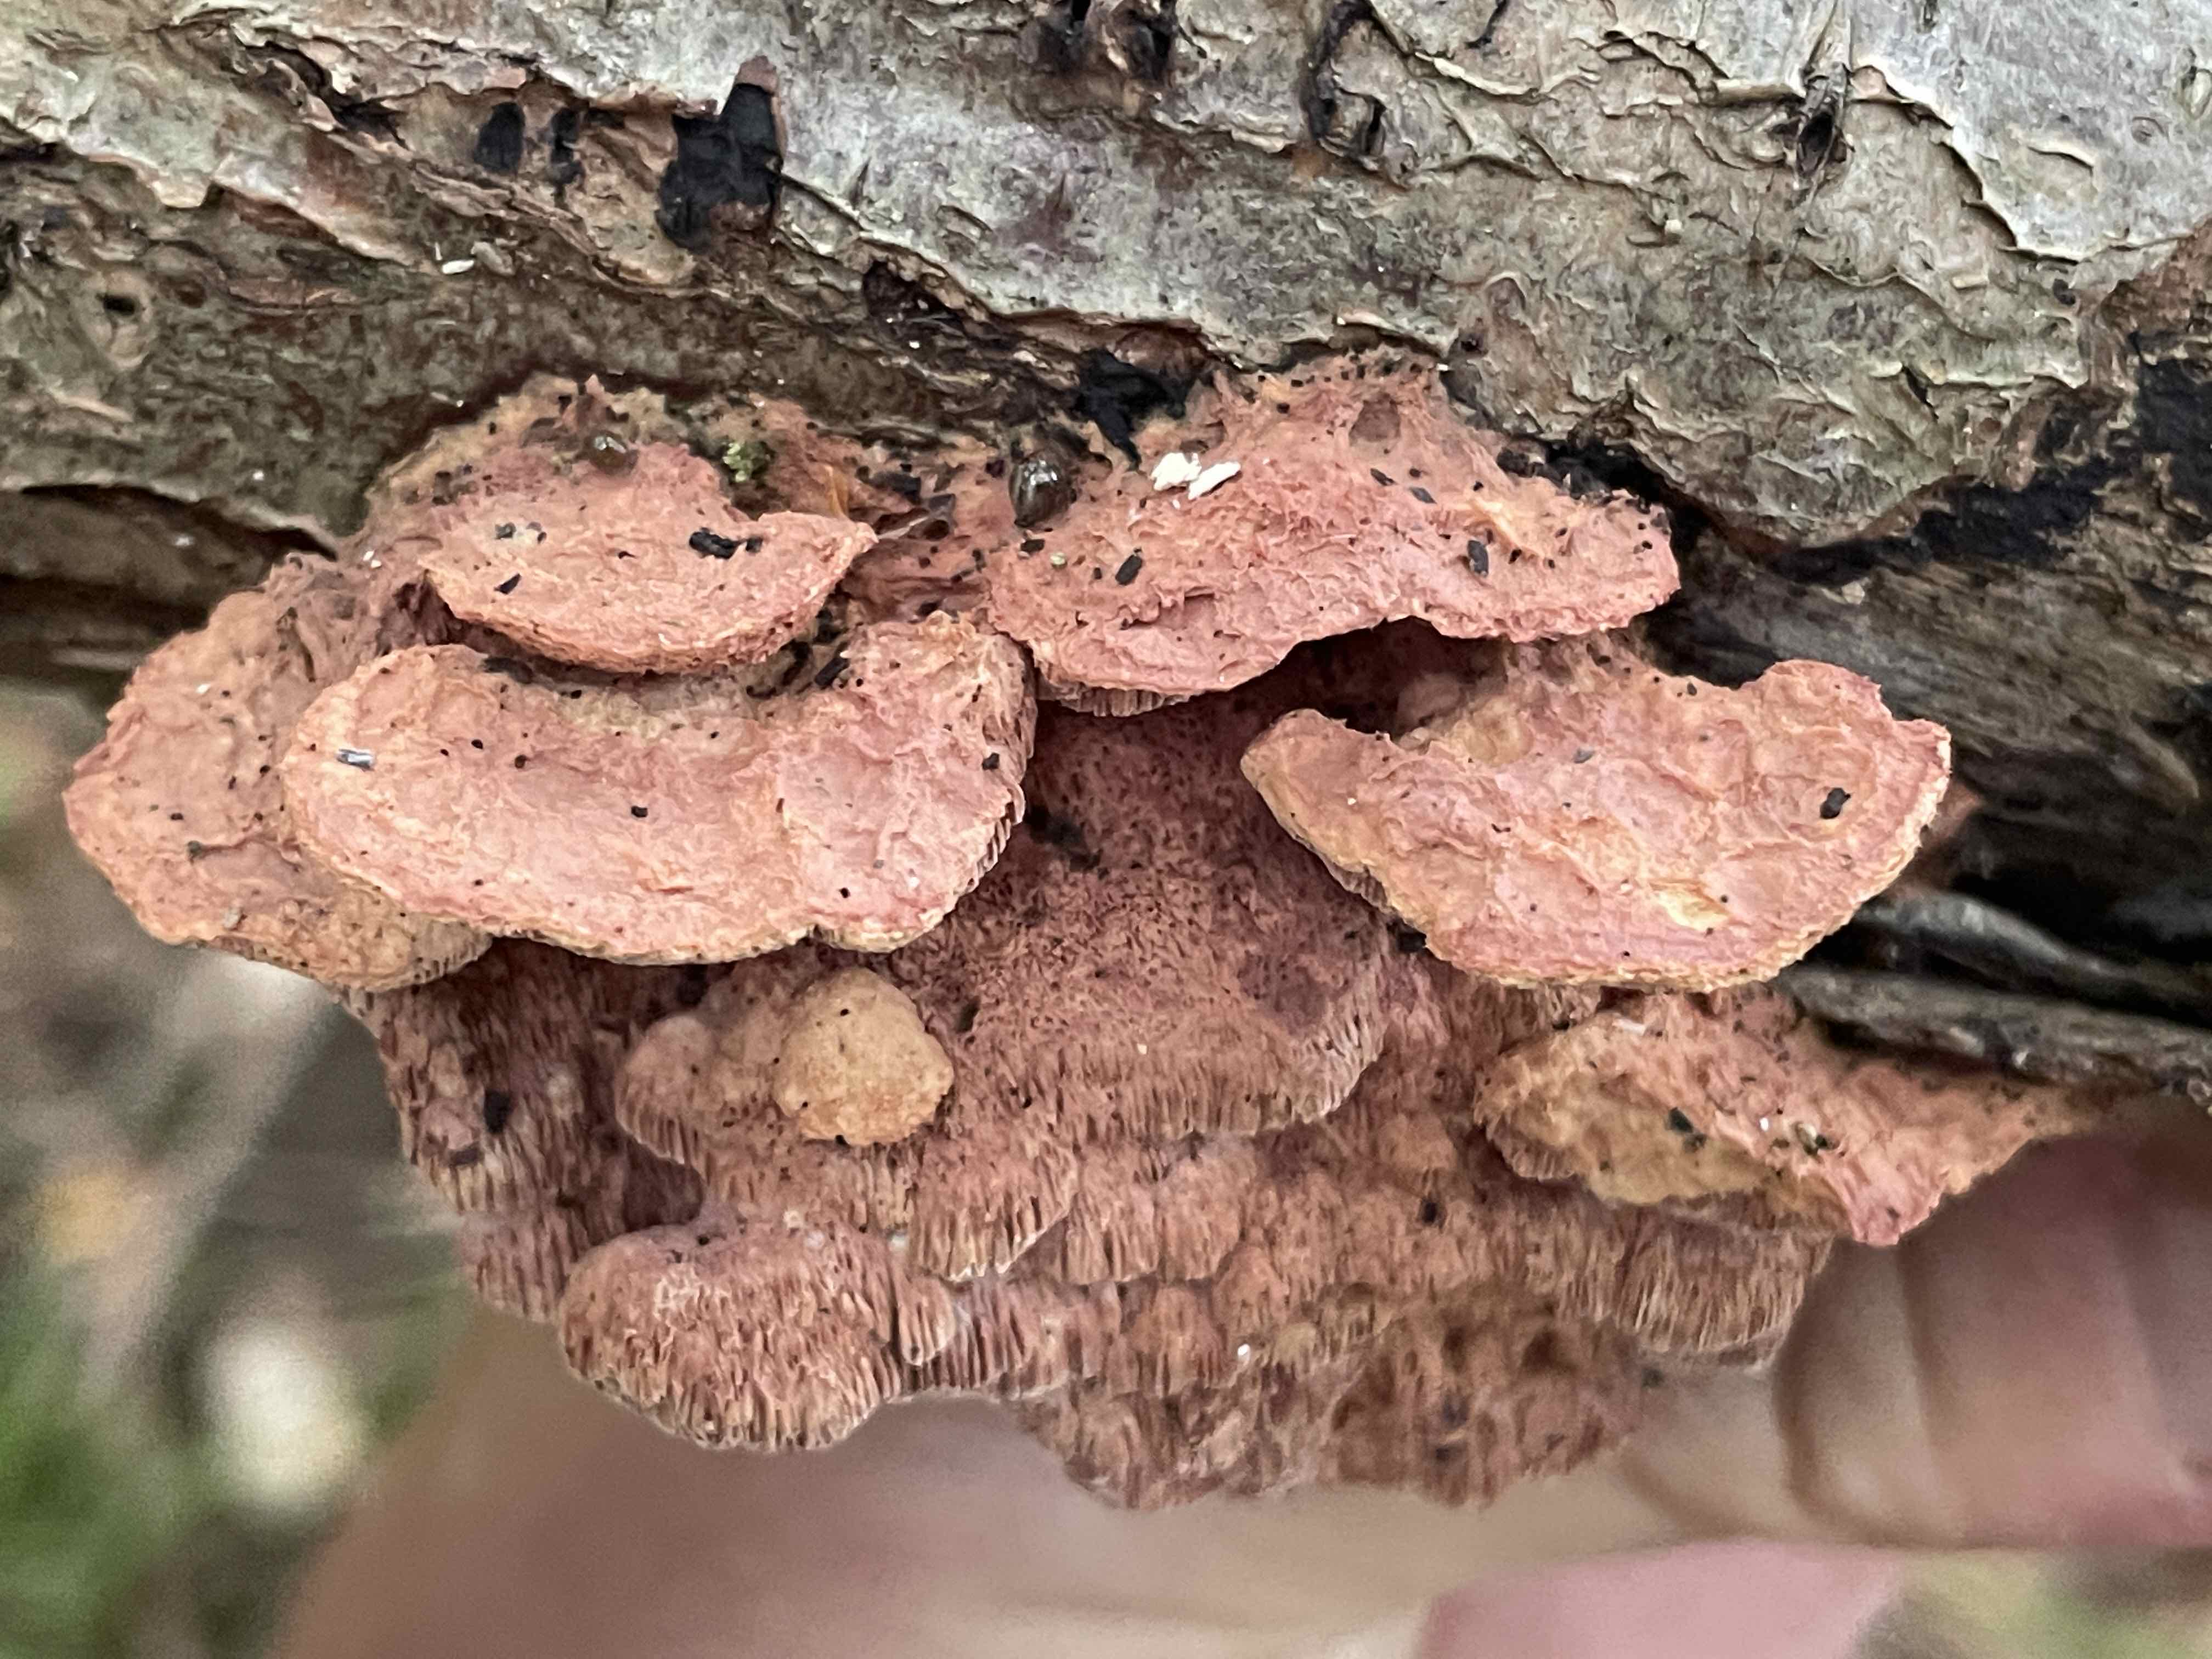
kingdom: Fungi
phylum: Basidiomycota
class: Agaricomycetes
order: Polyporales
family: Phanerochaetaceae
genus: Hapalopilus
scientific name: Hapalopilus rutilans
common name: rødlig okkerporesvamp
